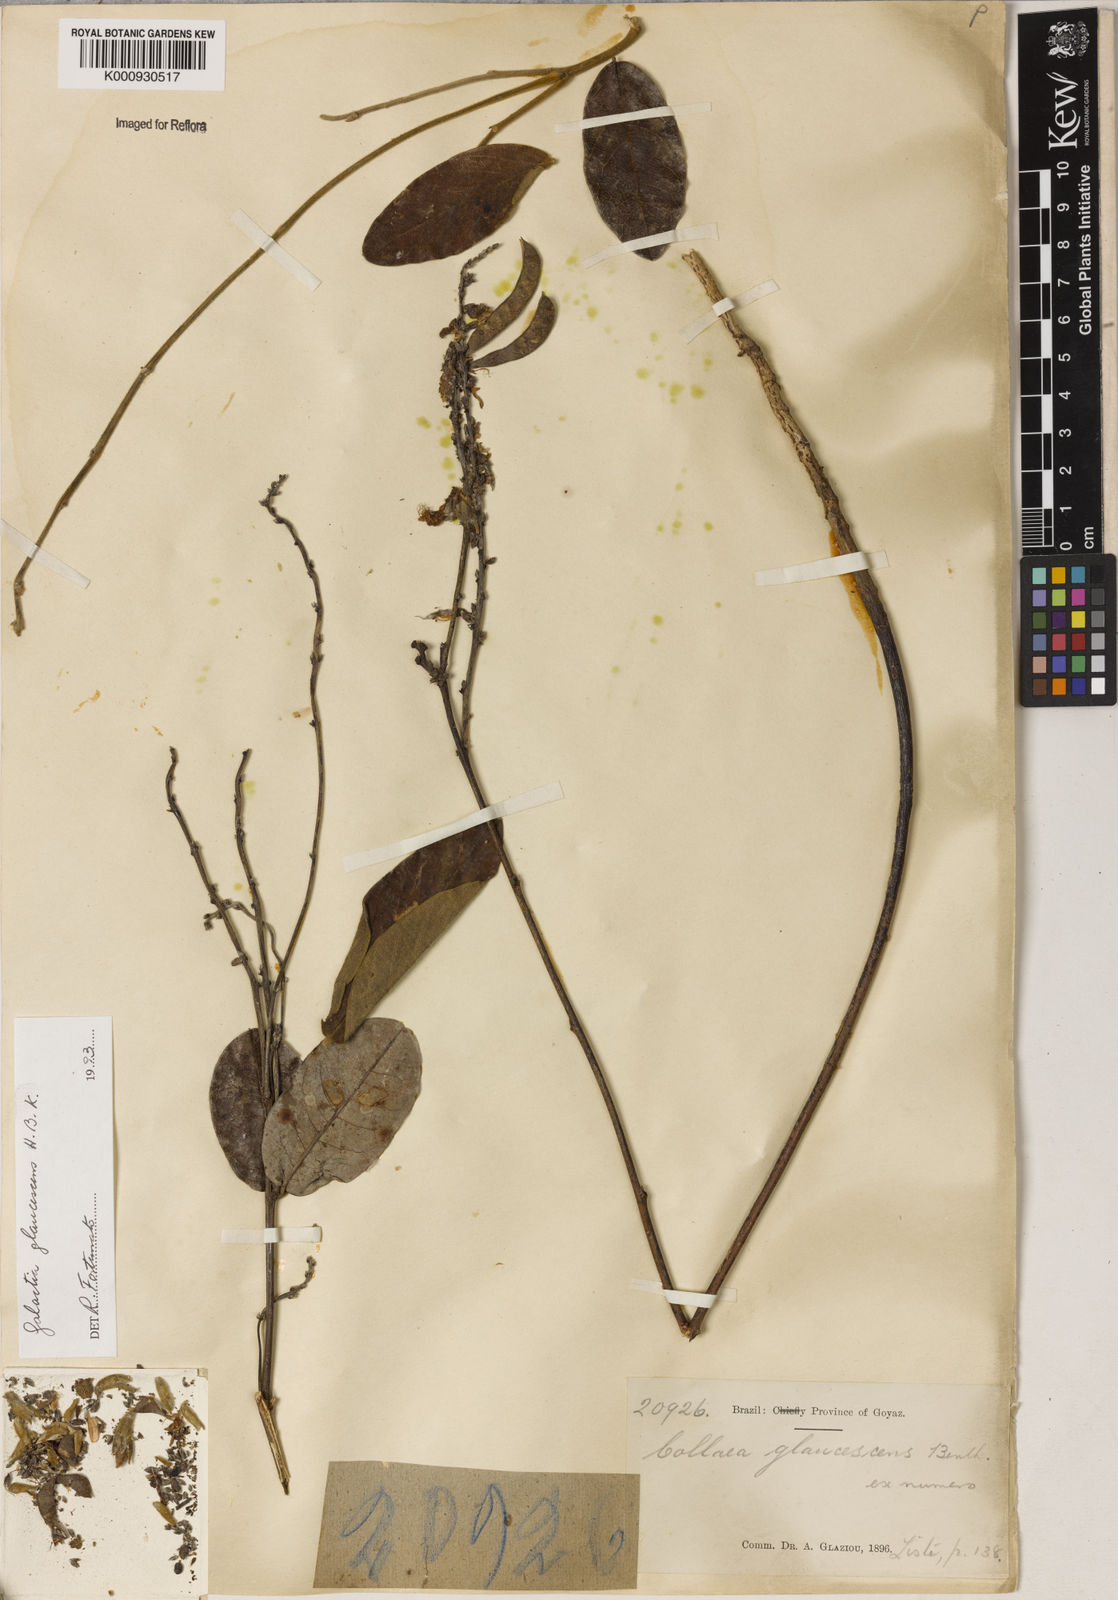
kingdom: Plantae
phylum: Tracheophyta
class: Magnoliopsida
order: Fabales
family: Fabaceae
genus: Galactia
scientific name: Galactia glaucescens
